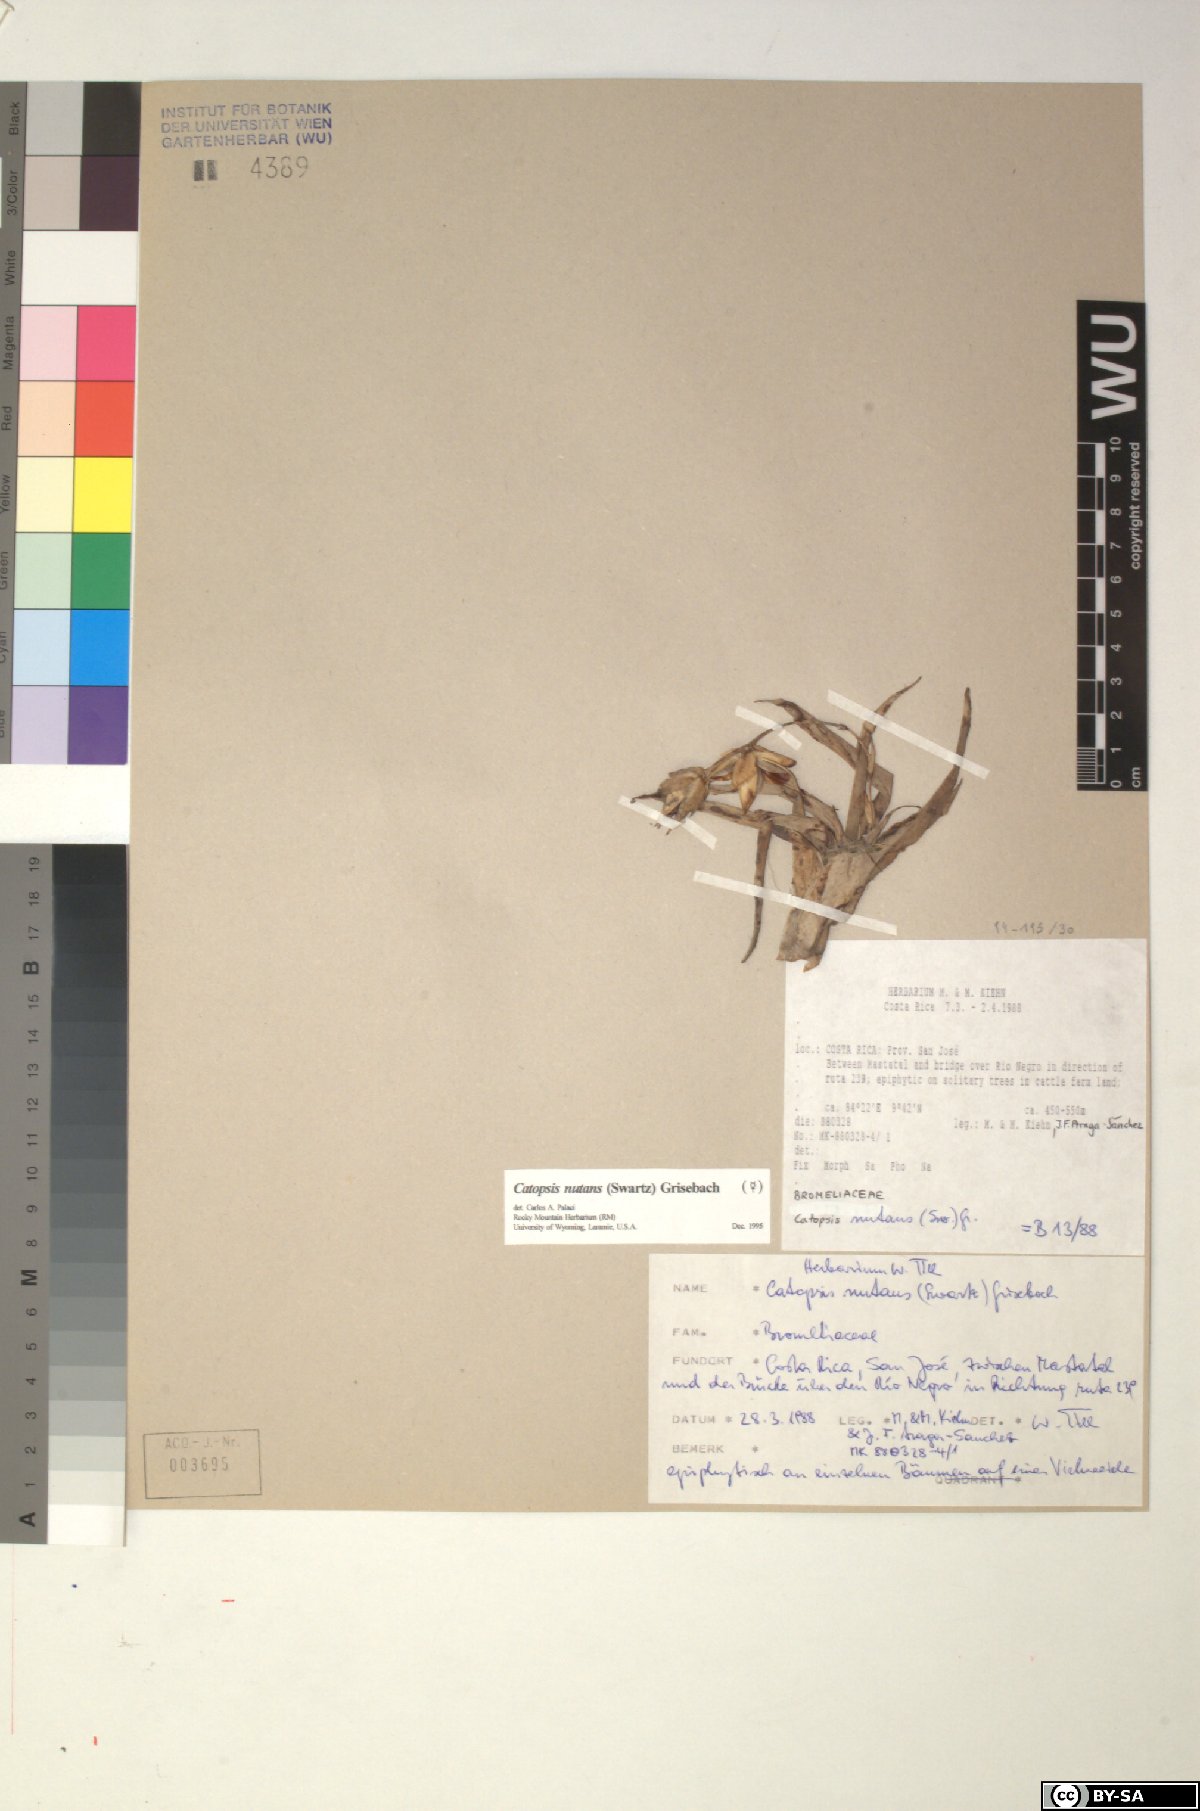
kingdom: Plantae
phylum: Tracheophyta
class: Liliopsida
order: Poales
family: Bromeliaceae
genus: Catopsis
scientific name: Catopsis nutans
